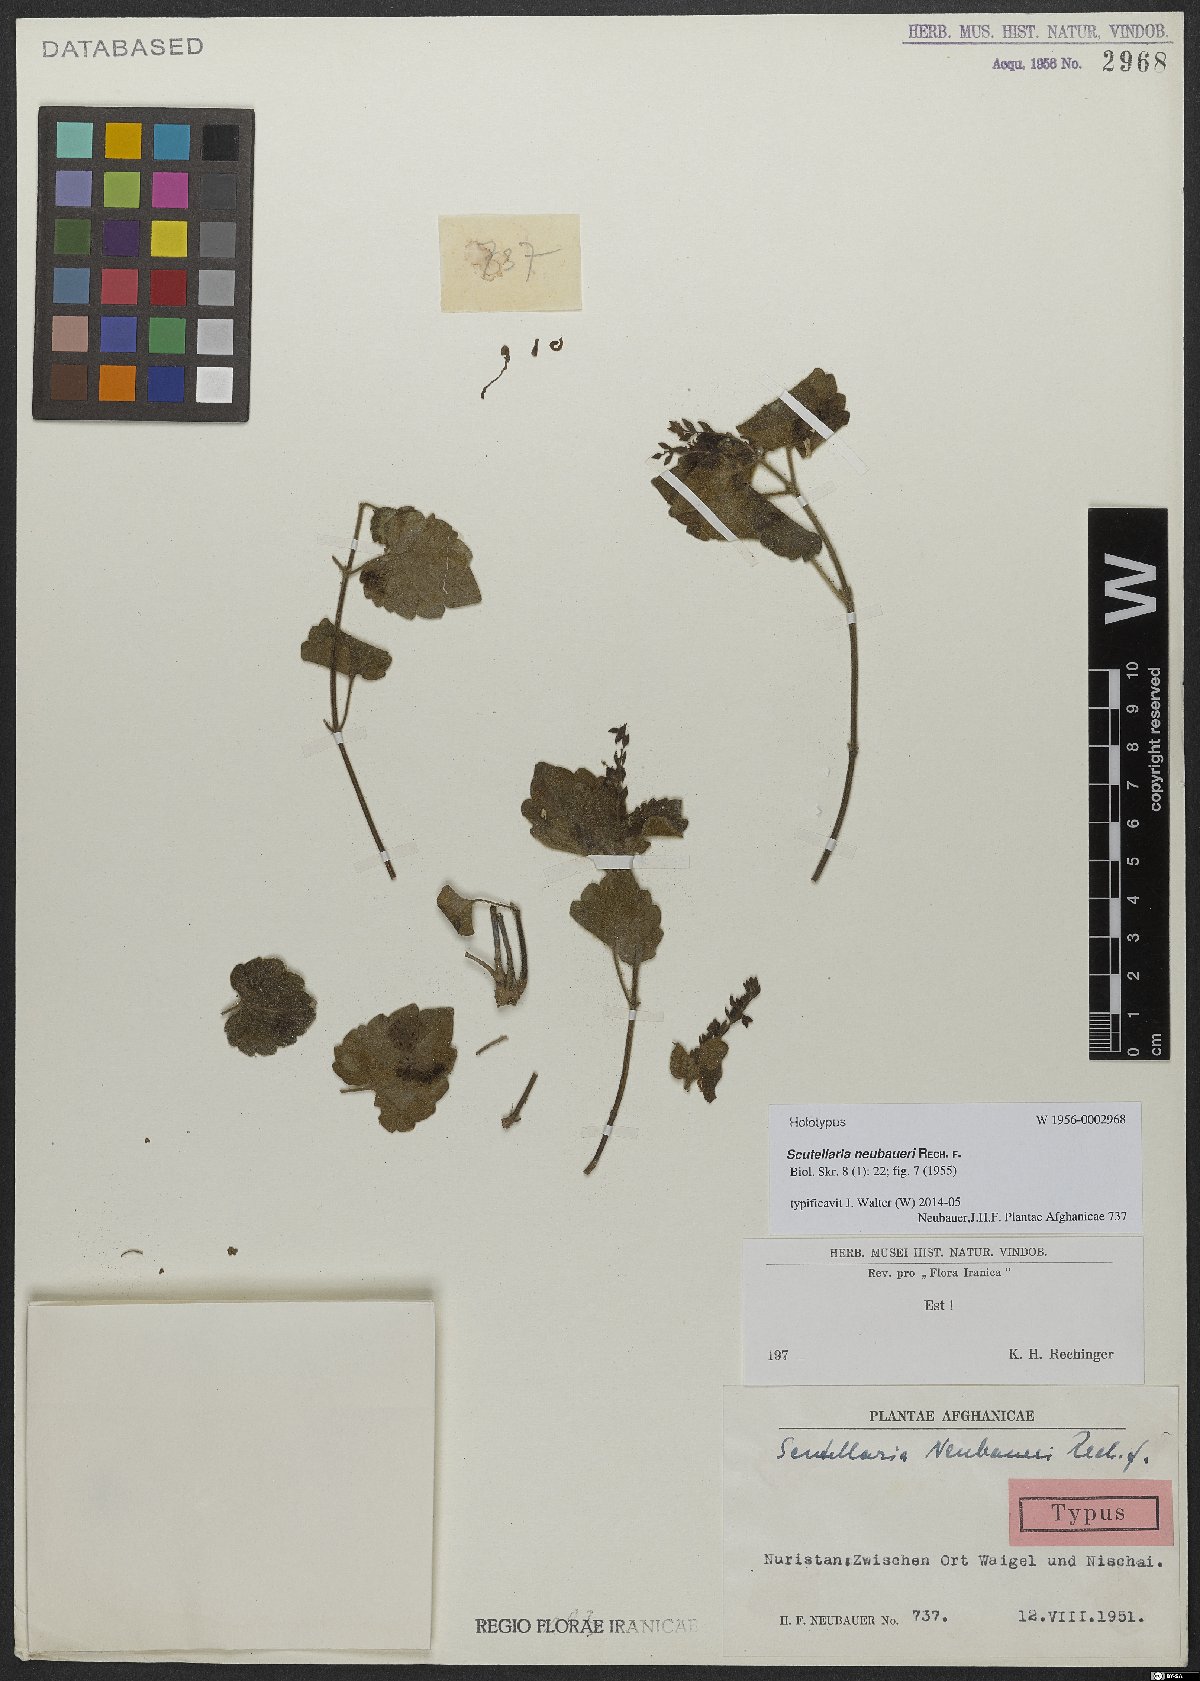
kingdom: Plantae
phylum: Tracheophyta
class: Magnoliopsida
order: Lamiales
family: Lamiaceae
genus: Scutellaria
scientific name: Scutellaria neubaueri
